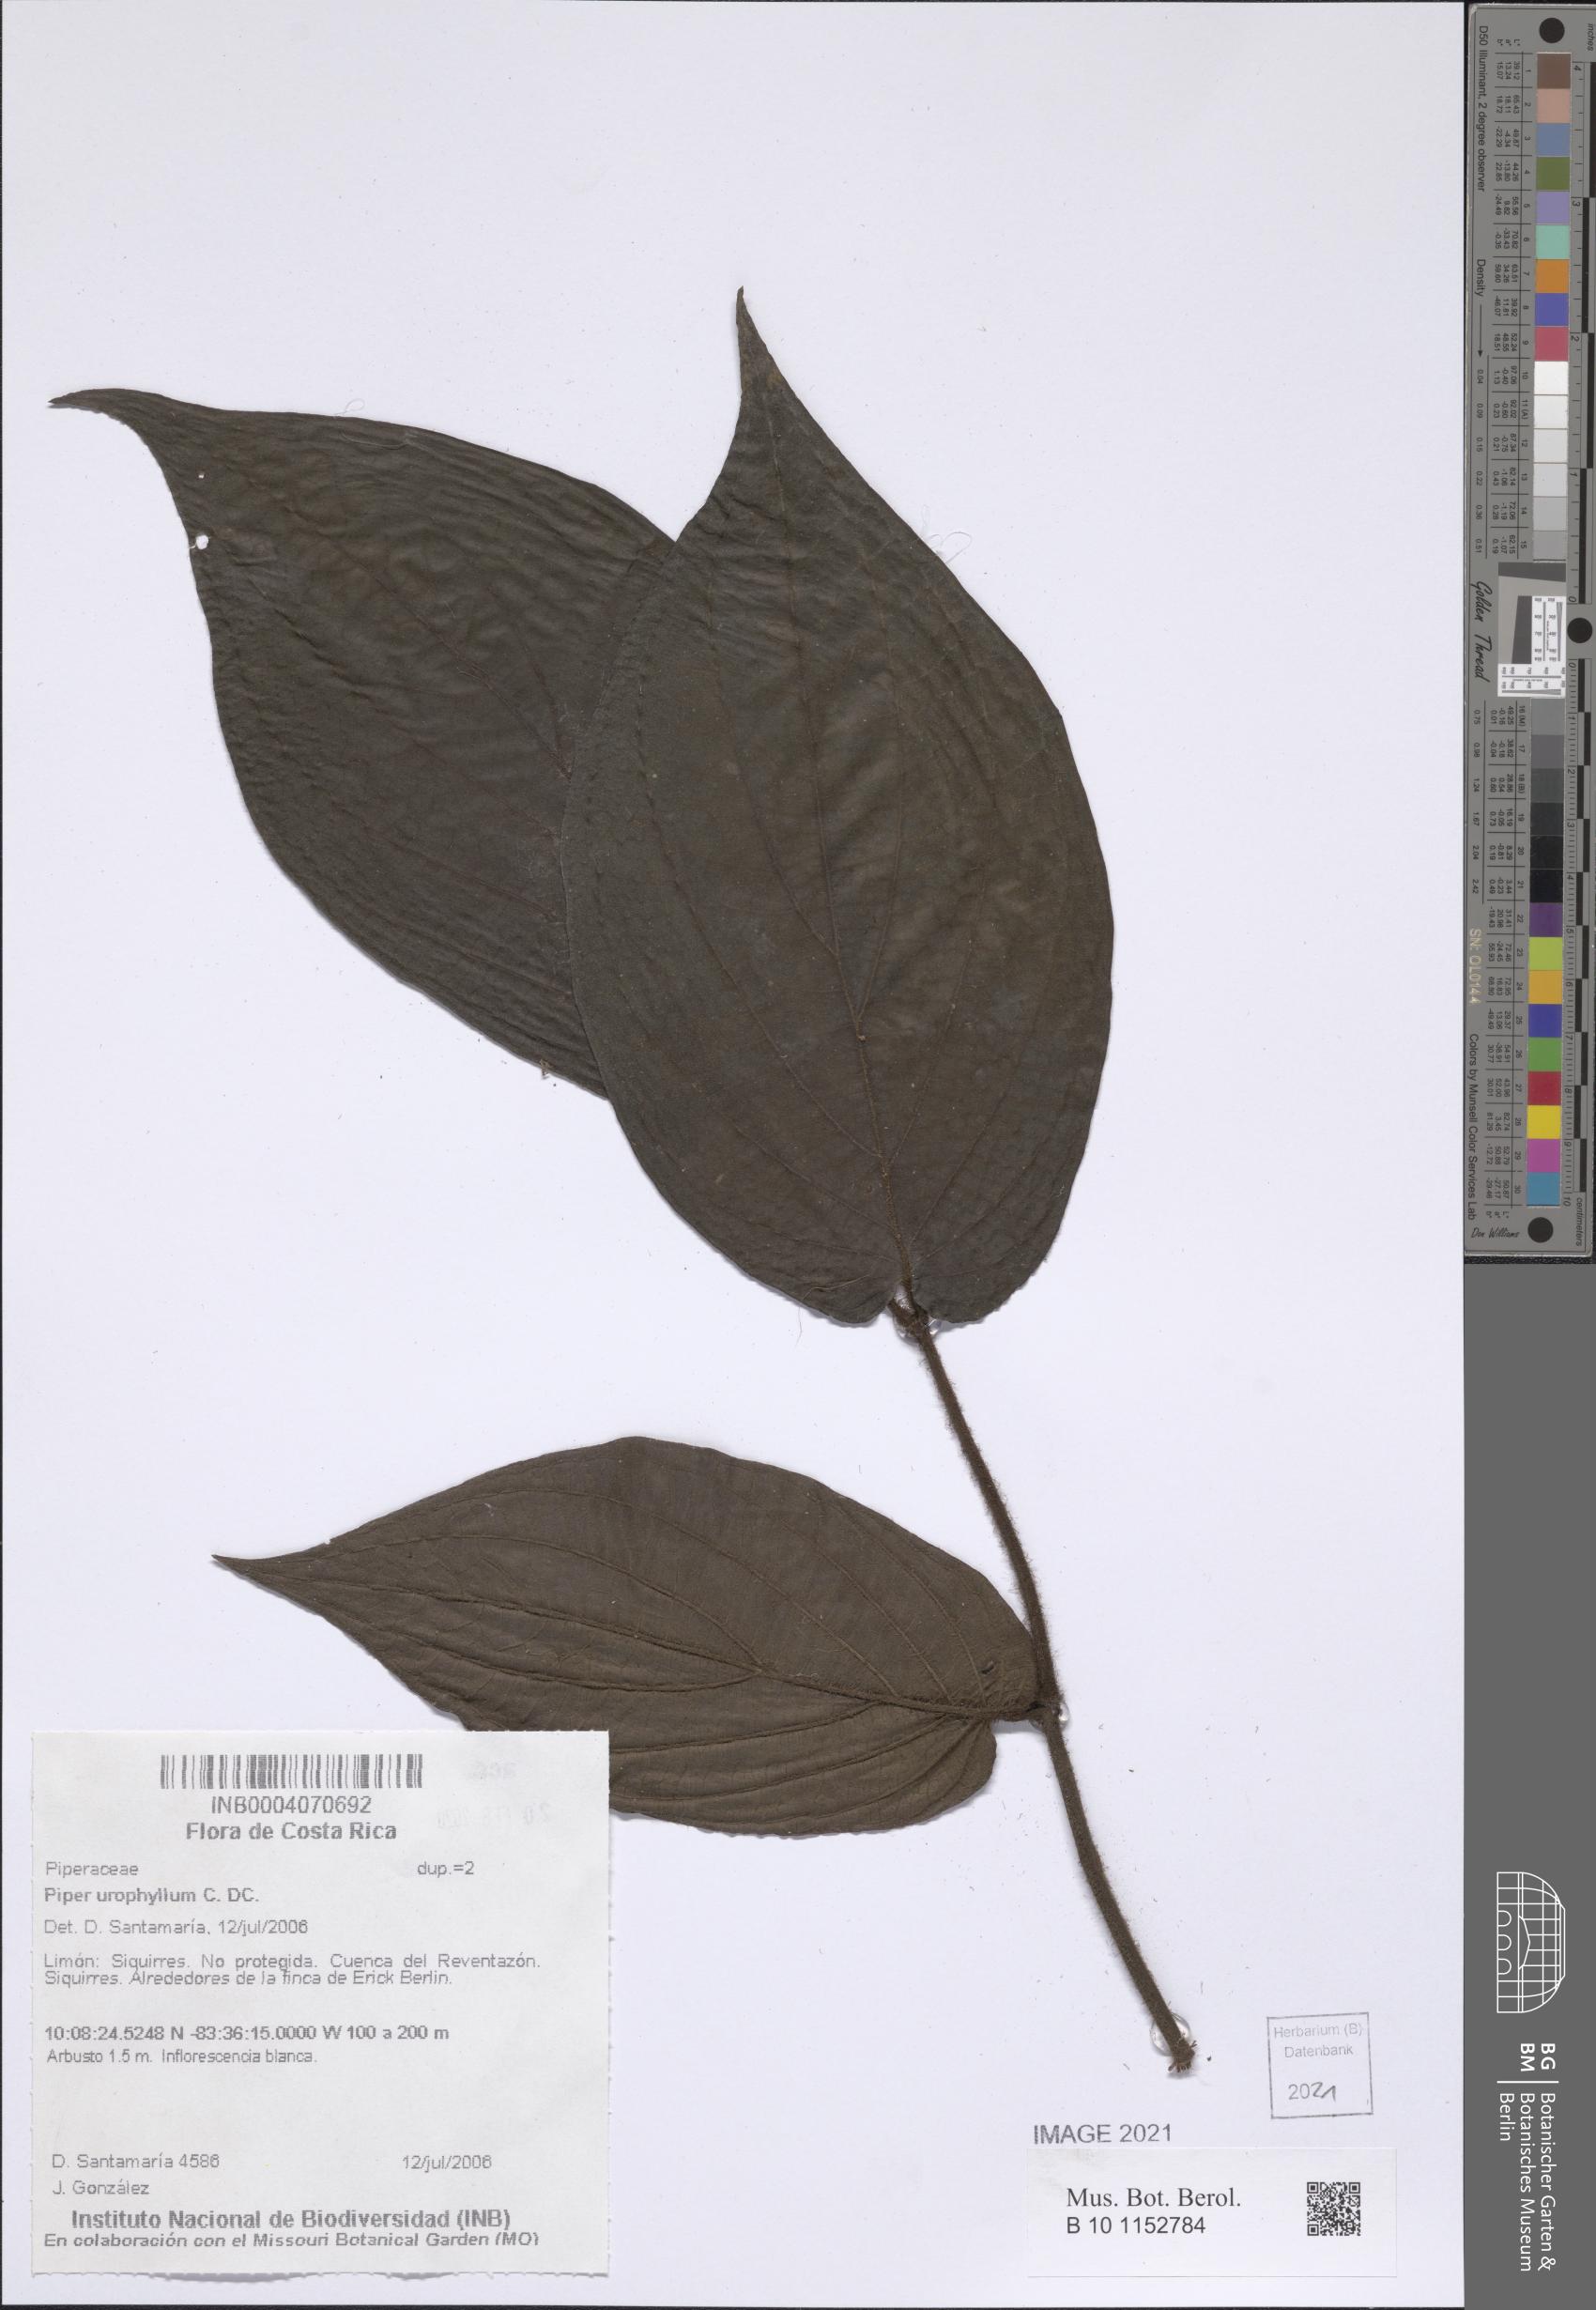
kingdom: Plantae
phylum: Tracheophyta
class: Magnoliopsida
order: Piperales
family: Piperaceae
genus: Piper
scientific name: Piper urophyllum
